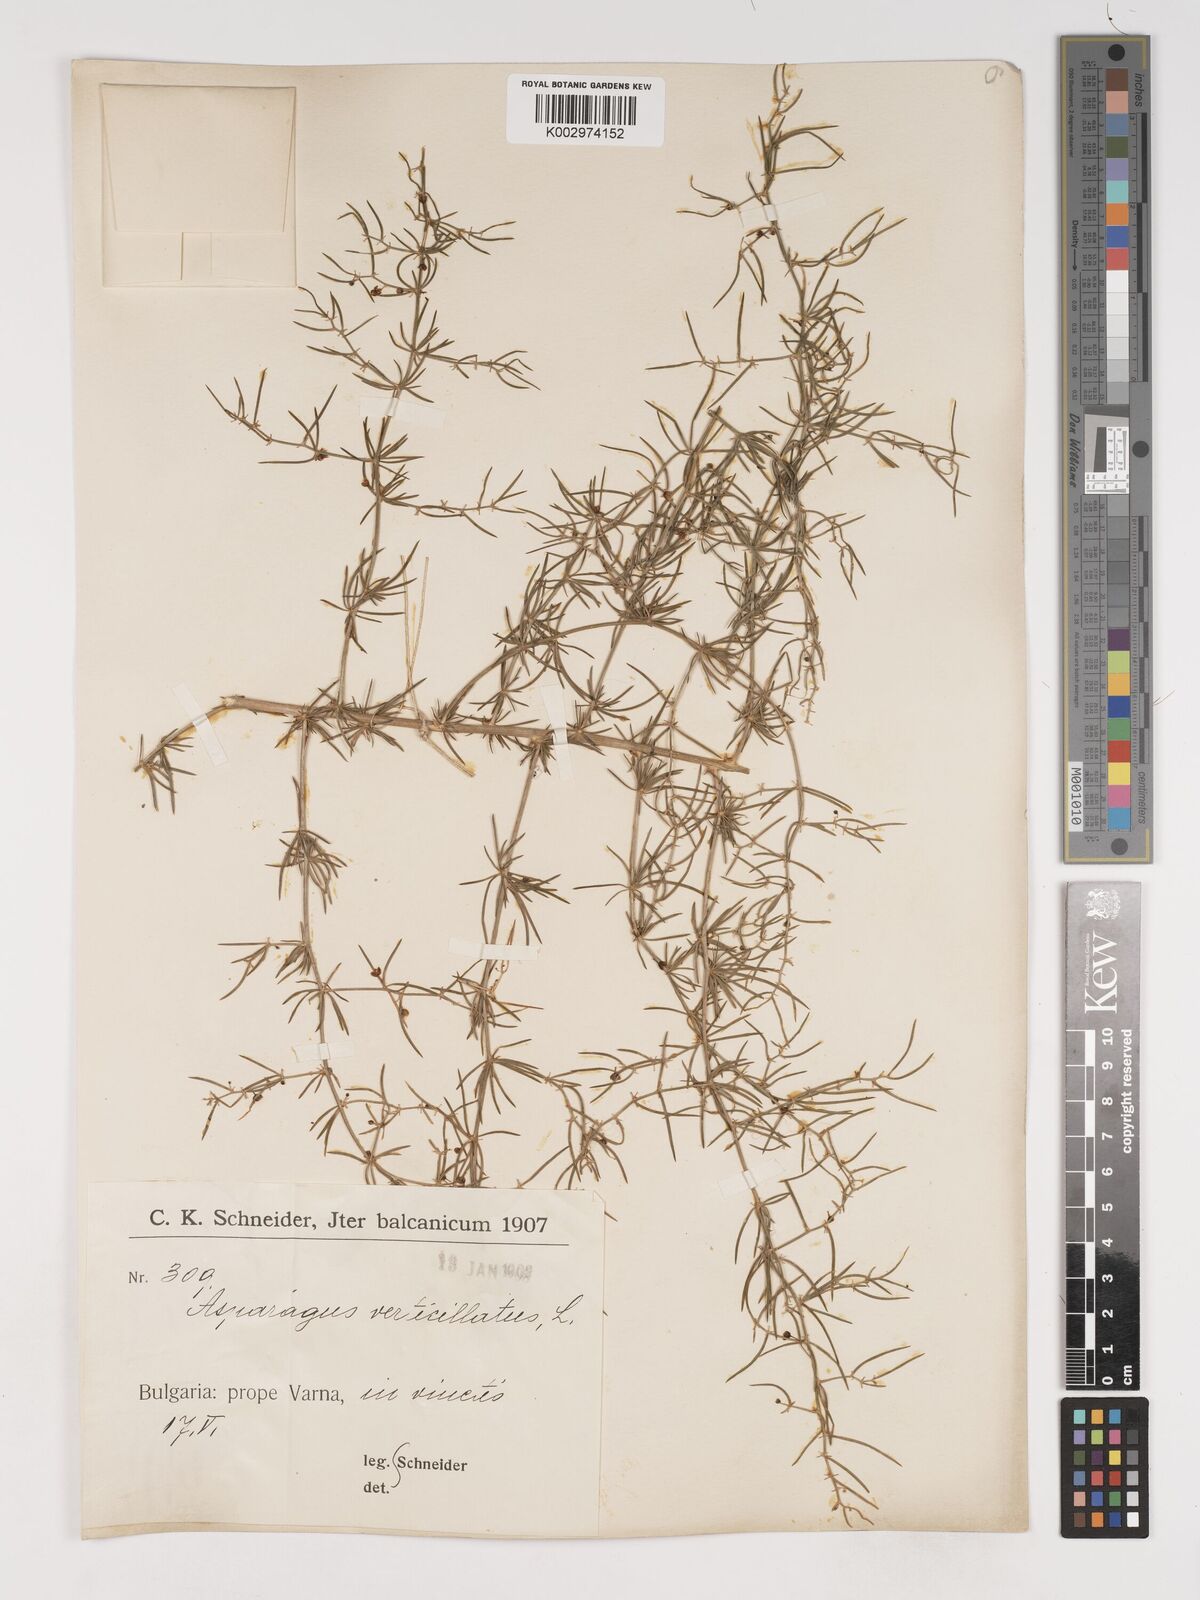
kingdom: Plantae
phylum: Tracheophyta
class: Liliopsida
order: Asparagales
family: Asparagaceae
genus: Asparagus
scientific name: Asparagus verticillatus
